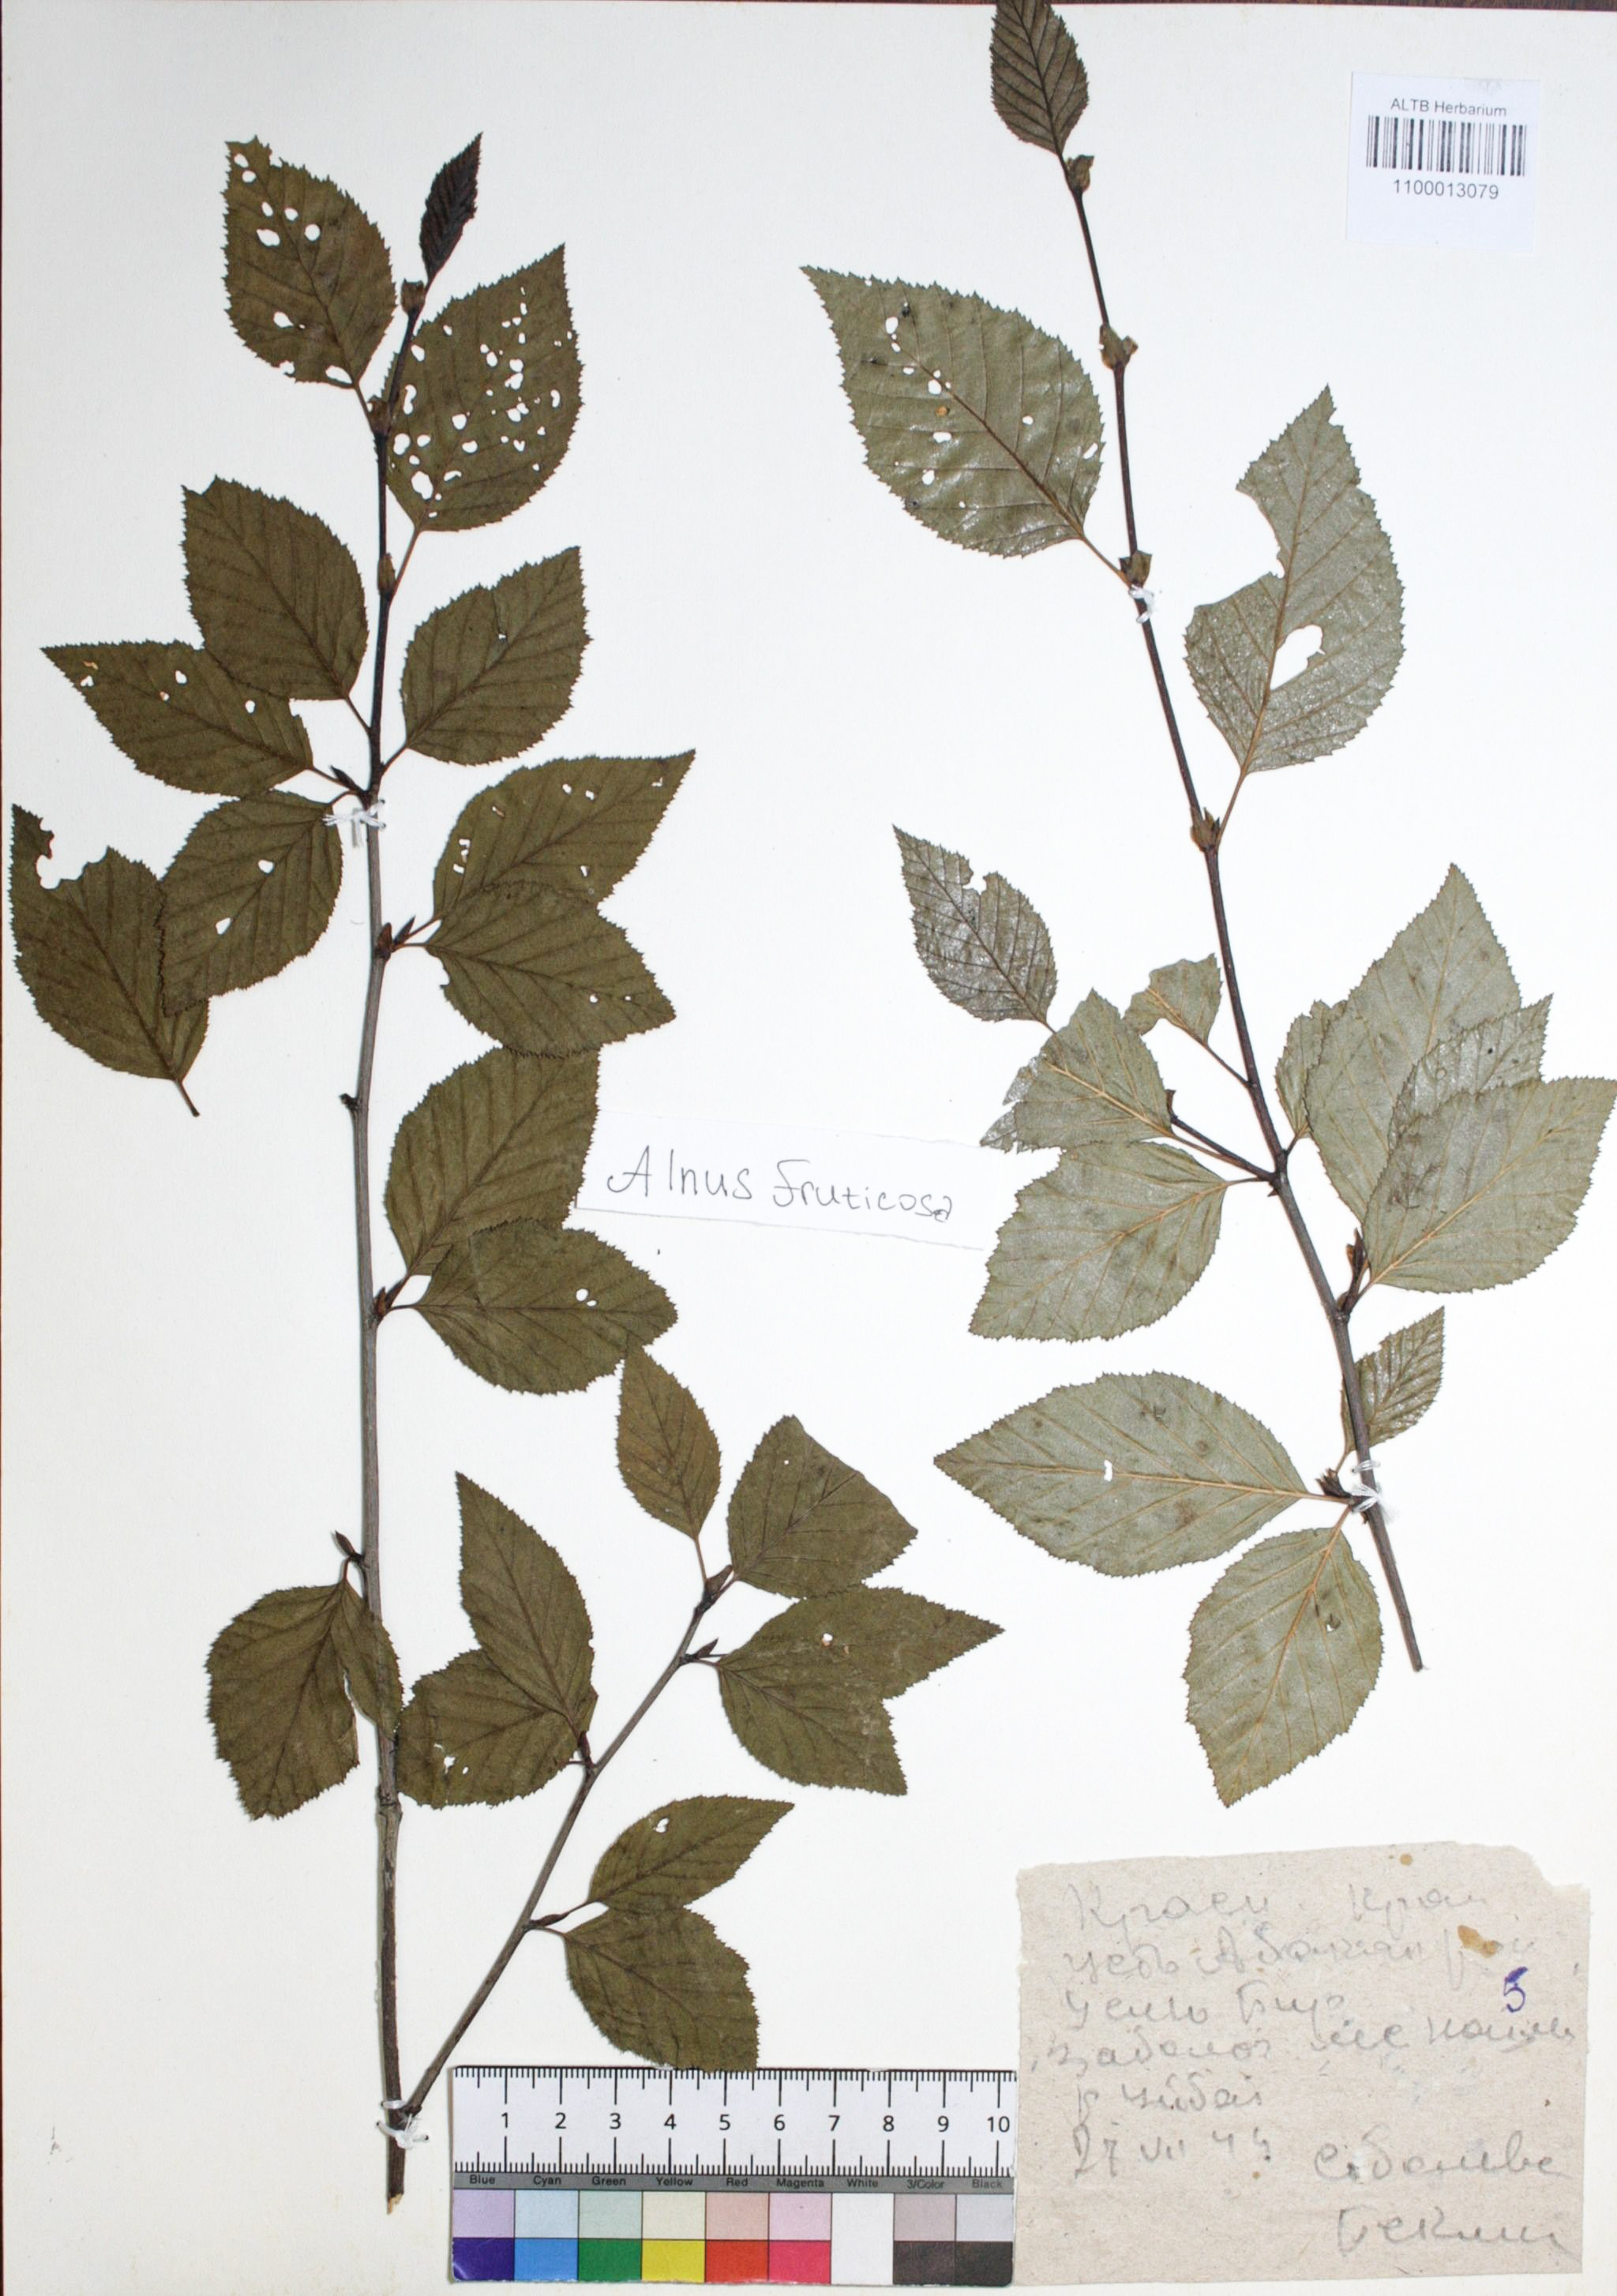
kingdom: Plantae
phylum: Tracheophyta
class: Magnoliopsida
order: Fagales
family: Betulaceae
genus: Alnus
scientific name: Alnus alnobetula
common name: Green alder
